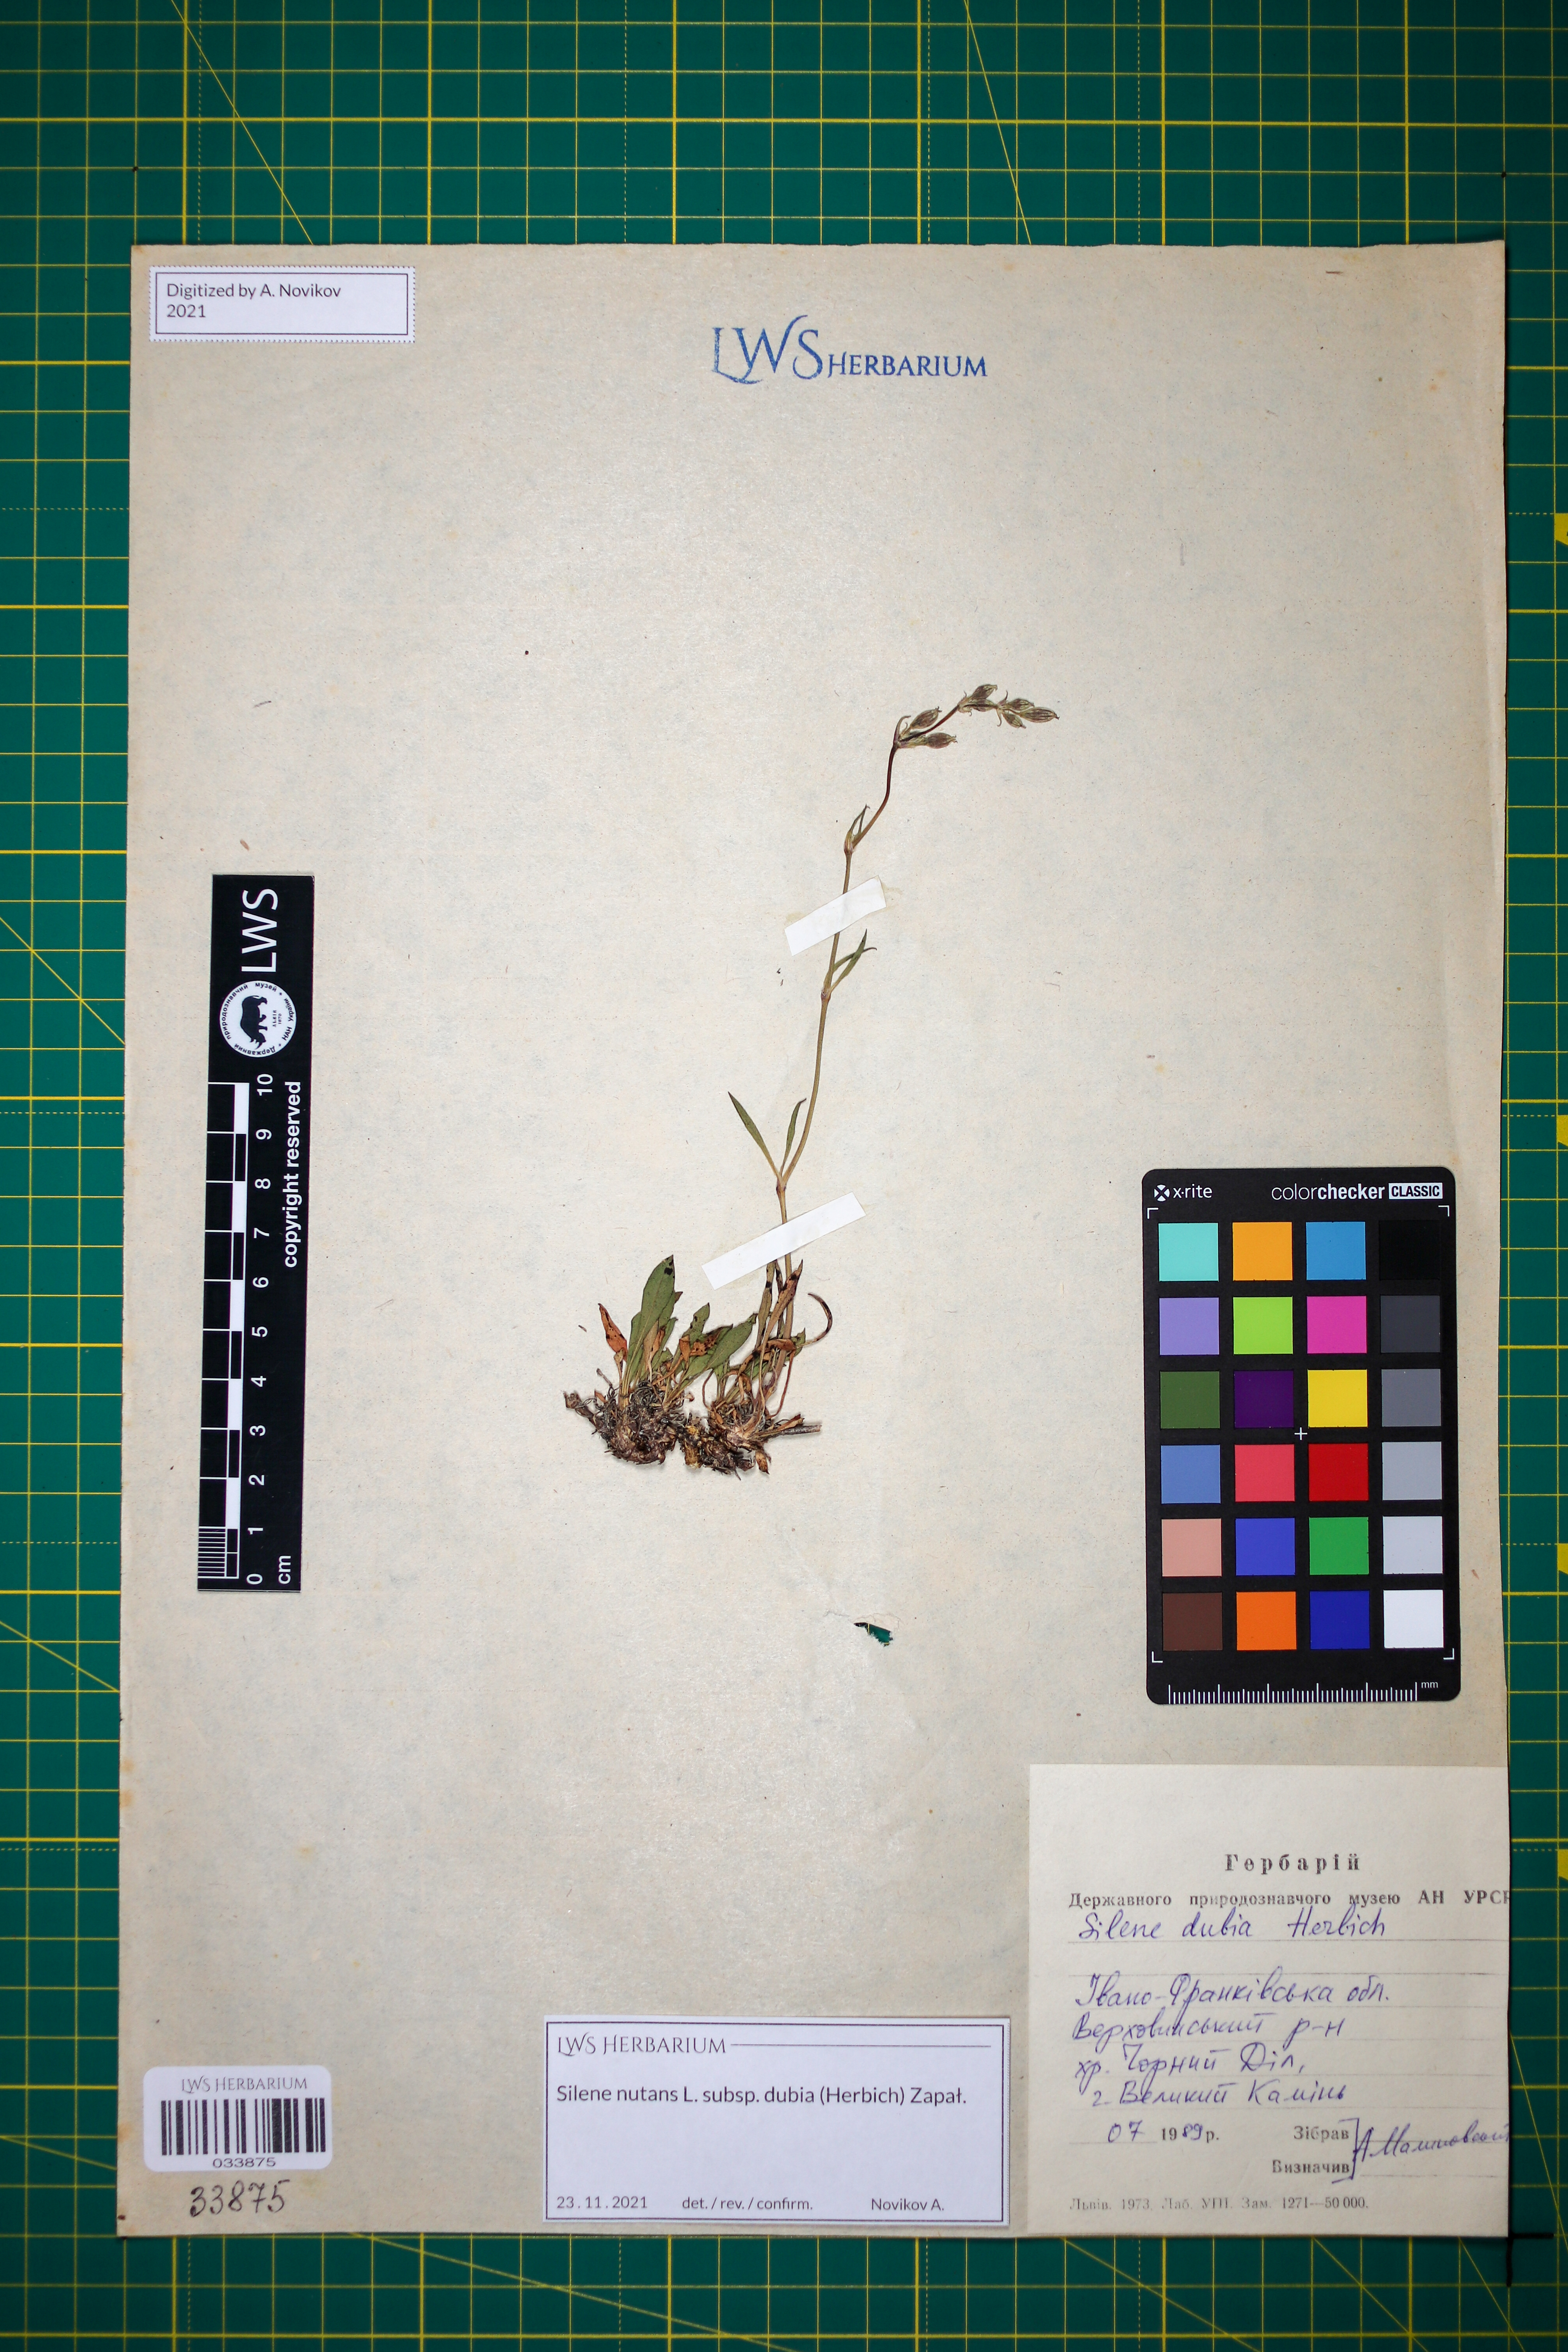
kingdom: Plantae
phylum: Tracheophyta
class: Magnoliopsida
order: Caryophyllales
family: Caryophyllaceae
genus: Silene
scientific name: Silene nutans
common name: Nottingham catchfly
